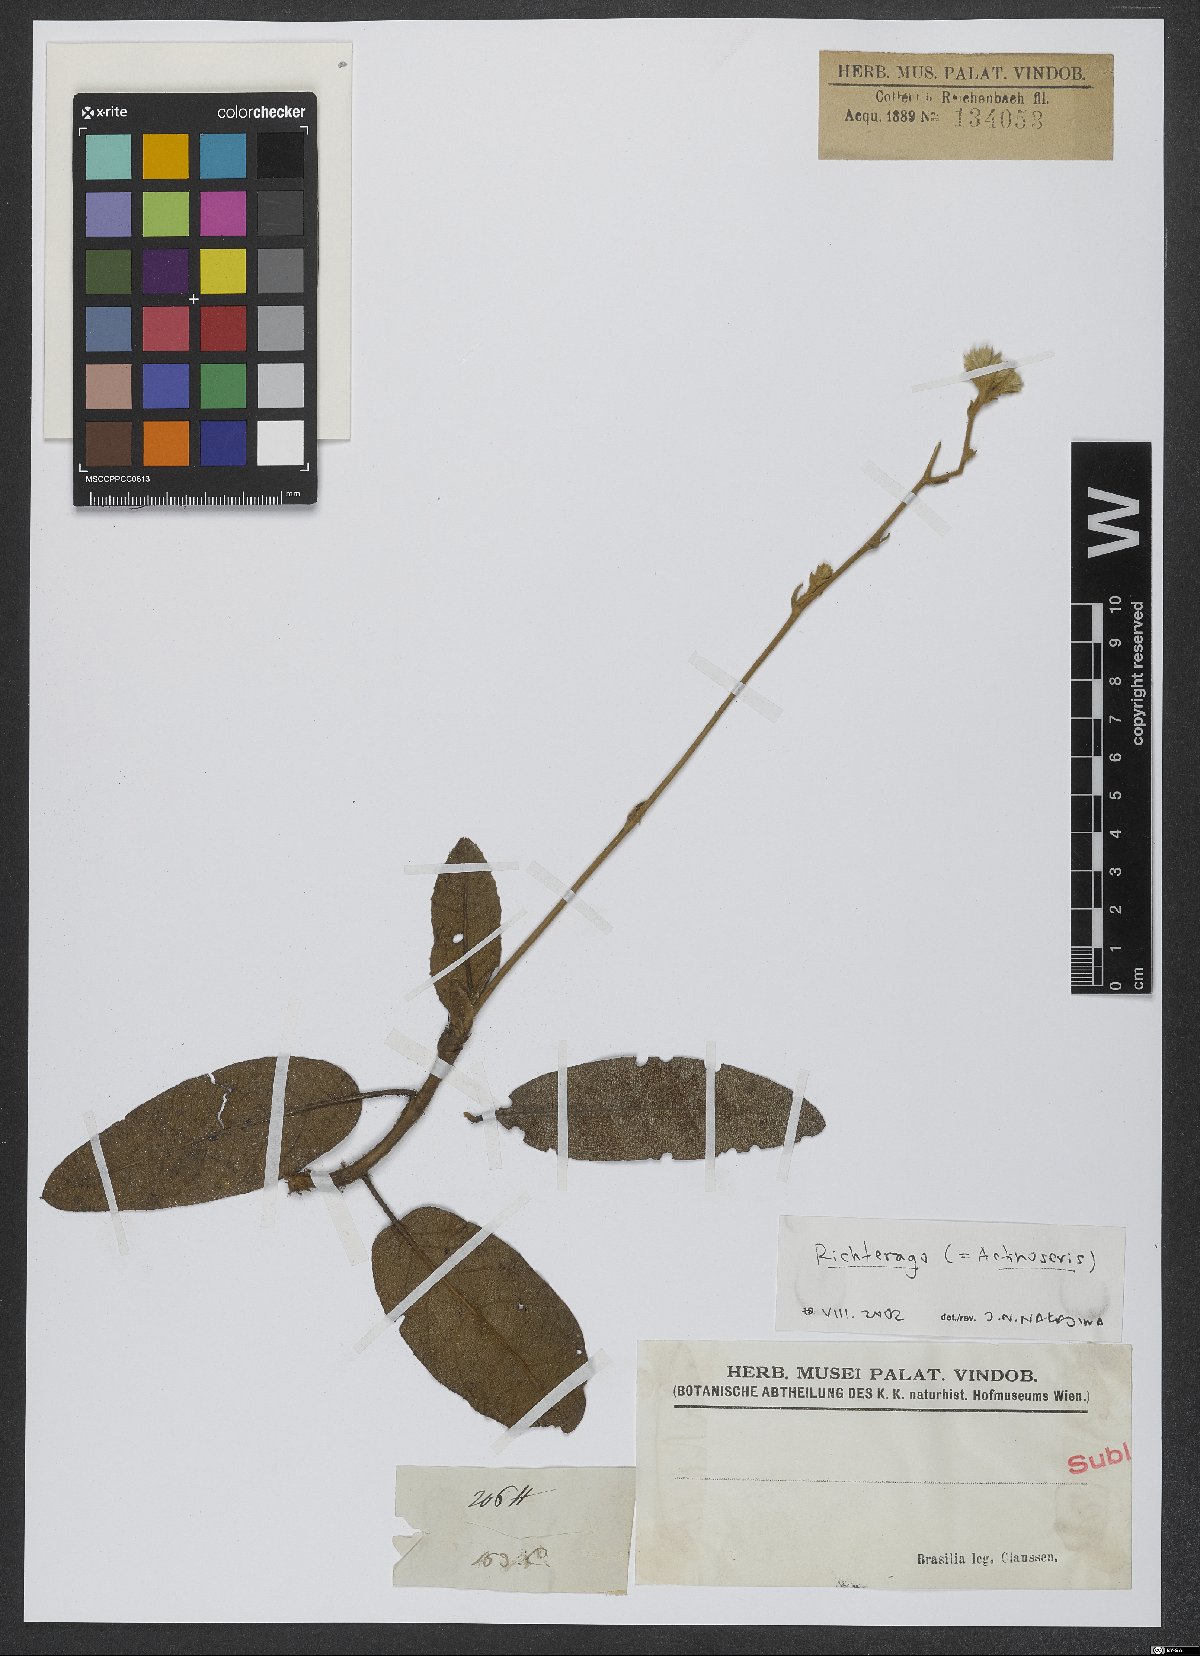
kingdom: Animalia
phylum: Cnidaria
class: Anthozoa
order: Scleractinia
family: Asteroseriidae
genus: Actinoseris
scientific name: Actinoseris
